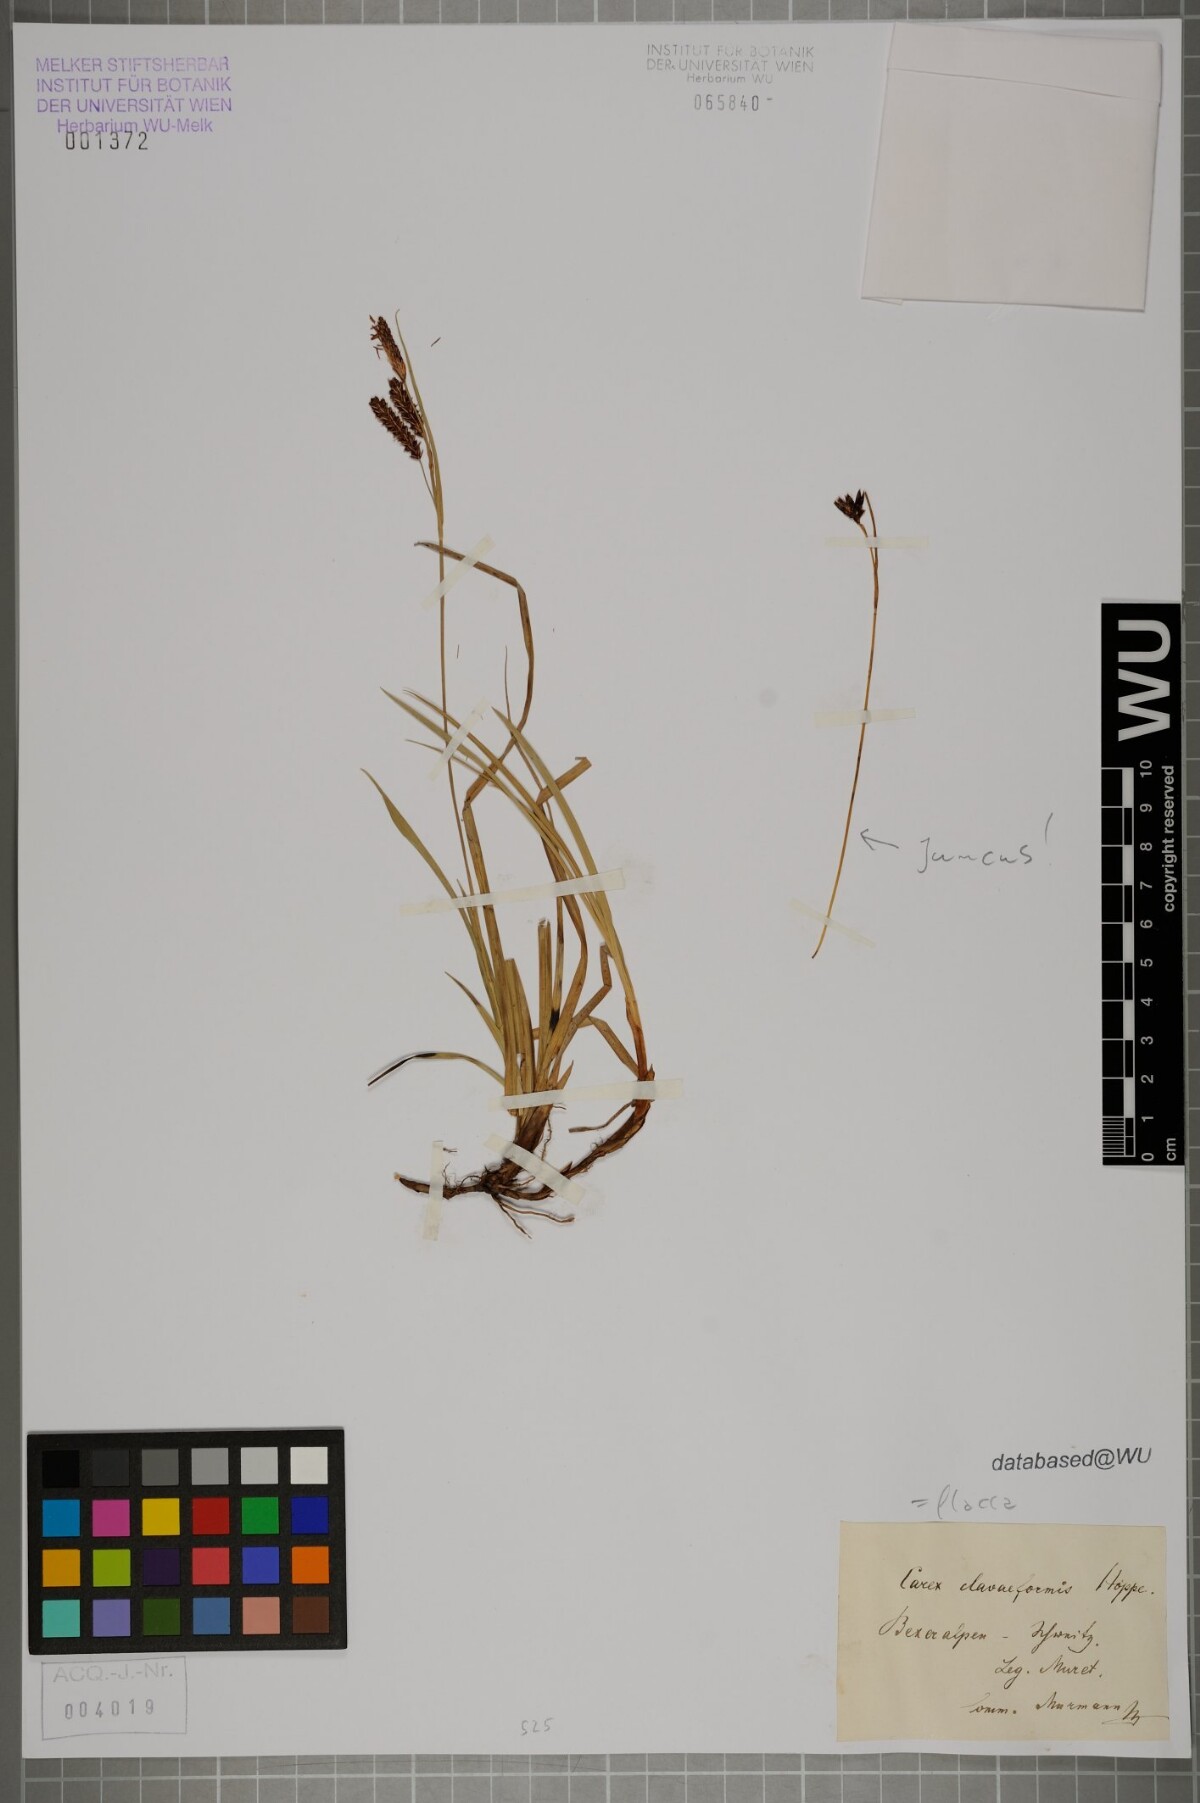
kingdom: Plantae
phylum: Tracheophyta
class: Liliopsida
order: Poales
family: Cyperaceae
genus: Carex
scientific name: Carex flacca
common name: Glaucous sedge
